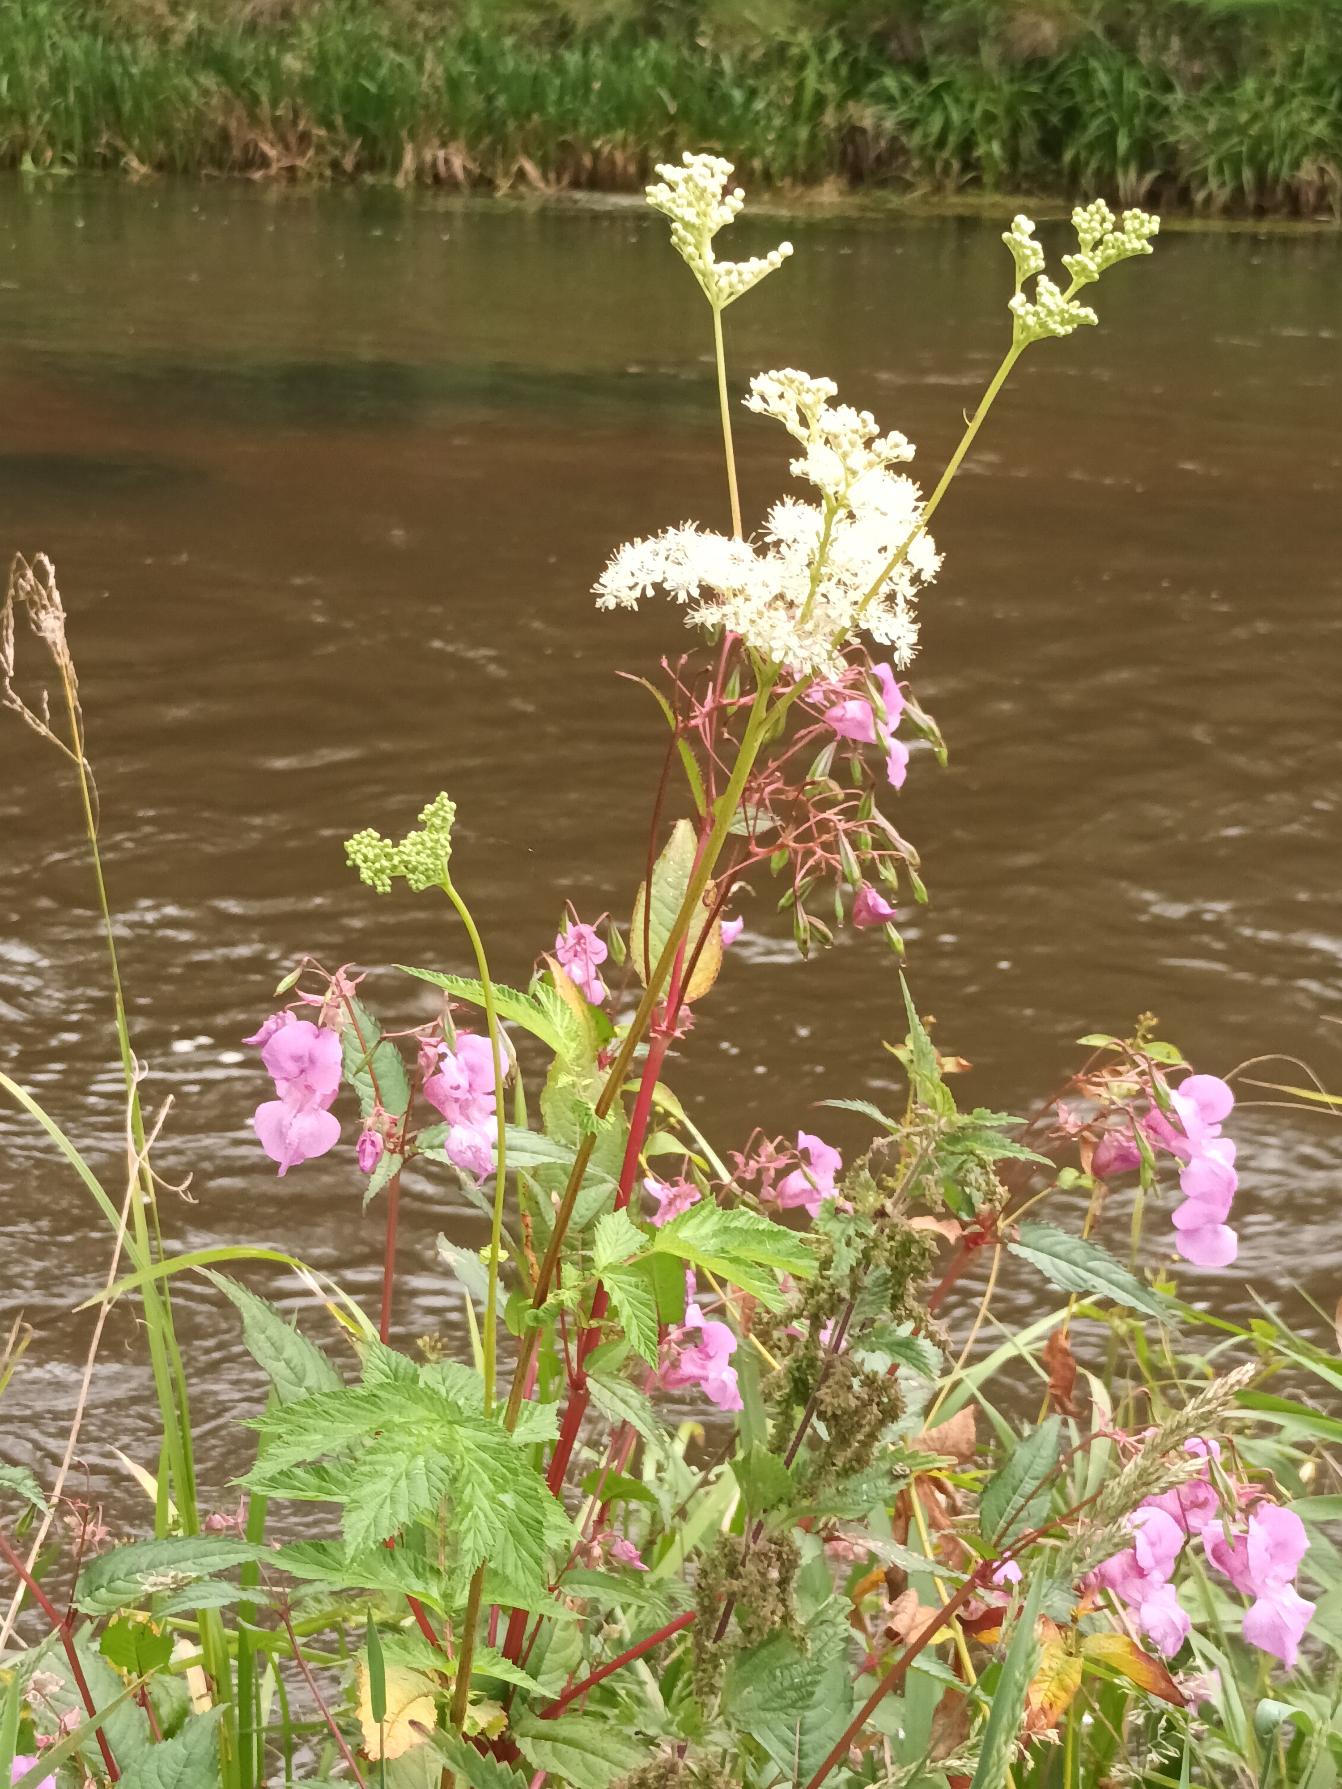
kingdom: Plantae
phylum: Tracheophyta
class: Magnoliopsida
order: Rosales
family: Rosaceae
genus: Filipendula
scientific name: Filipendula ulmaria
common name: Almindelig mjødurt
